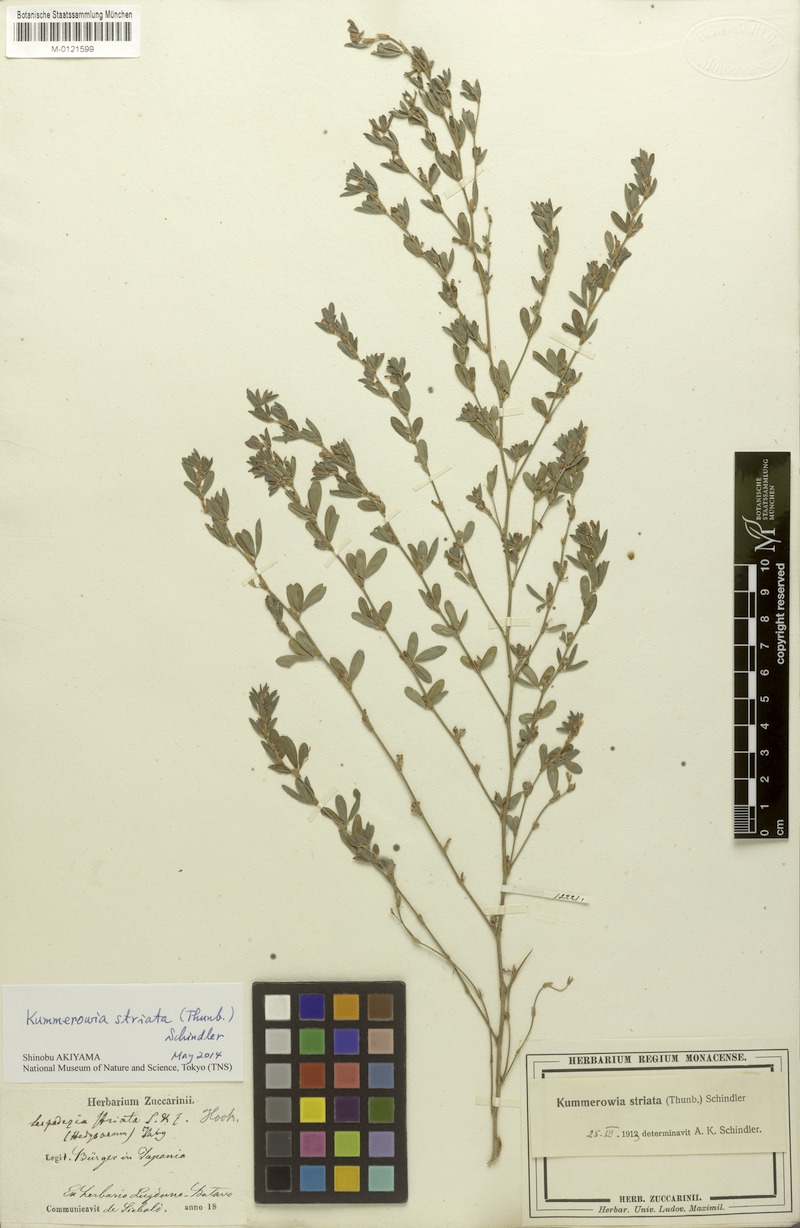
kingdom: Plantae
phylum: Tracheophyta
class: Magnoliopsida
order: Fabales
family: Fabaceae
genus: Kummerowia
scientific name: Kummerowia striata
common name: Japanese clover
